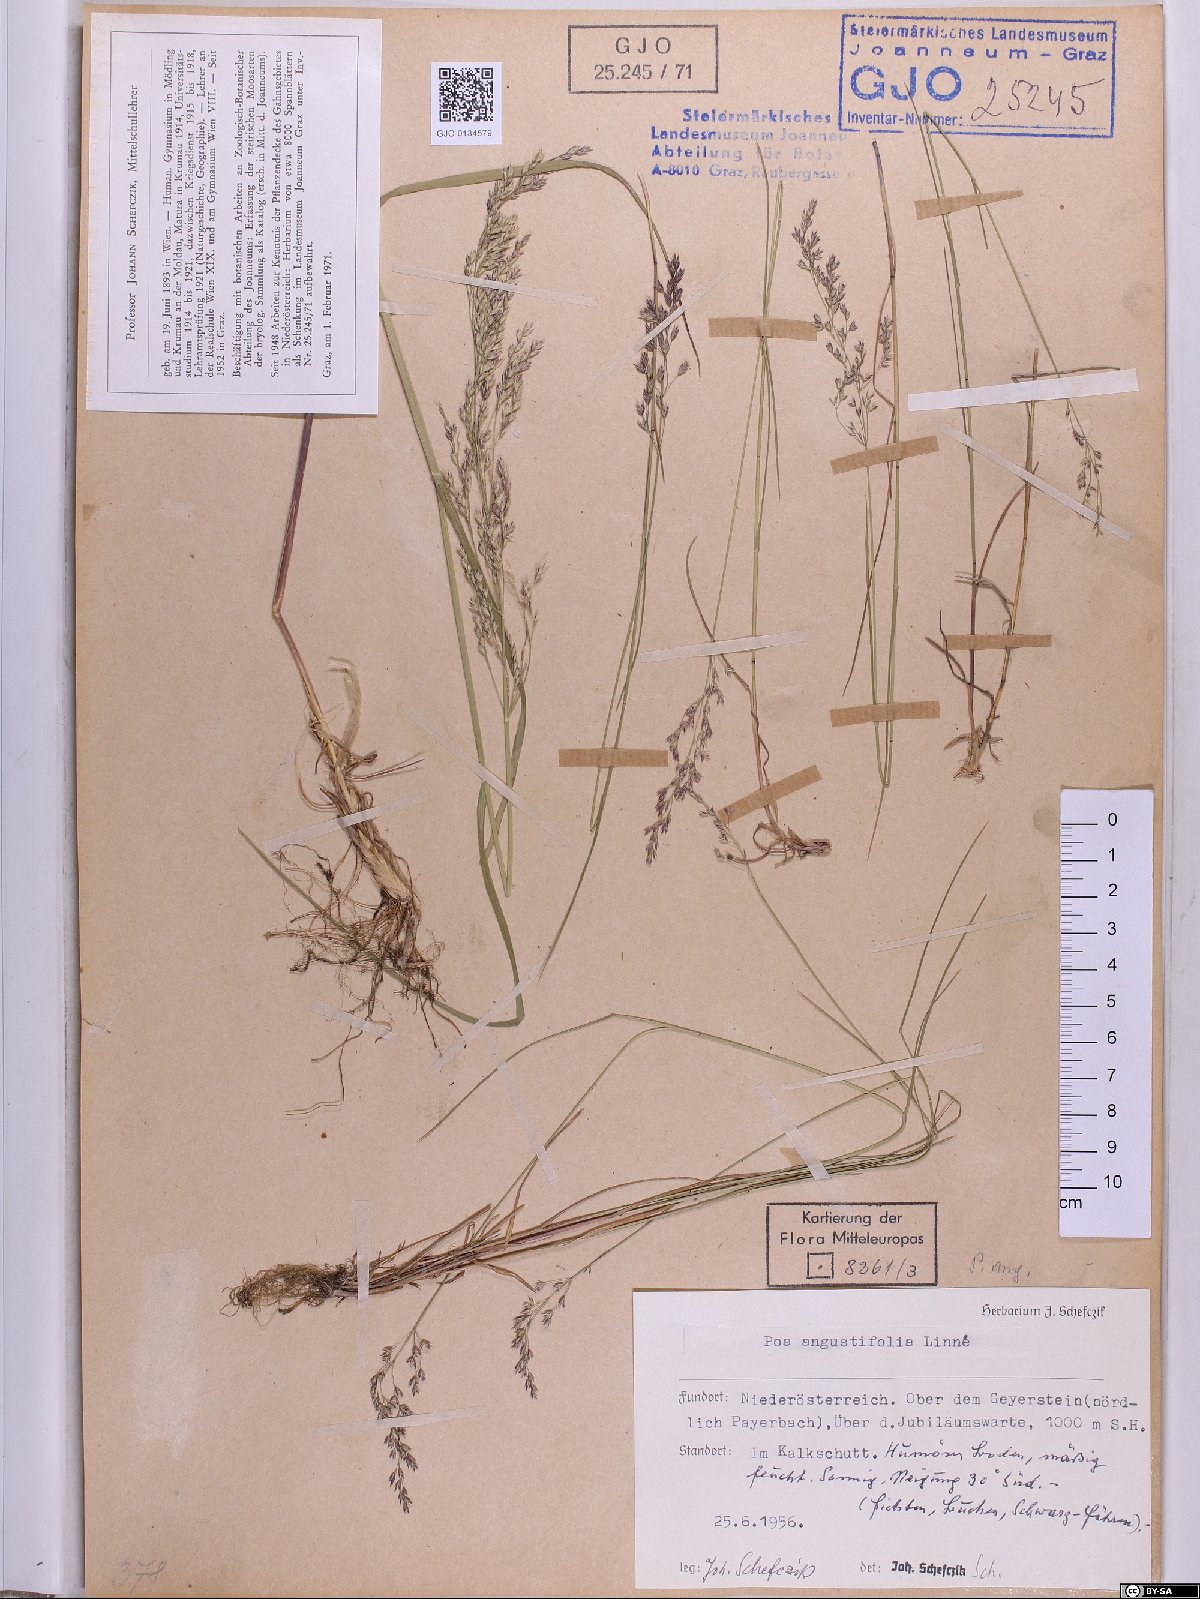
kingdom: Plantae
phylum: Tracheophyta
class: Liliopsida
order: Poales
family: Poaceae
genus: Poa
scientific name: Poa angustifolia
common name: Narrow-leaved meadow-grass
